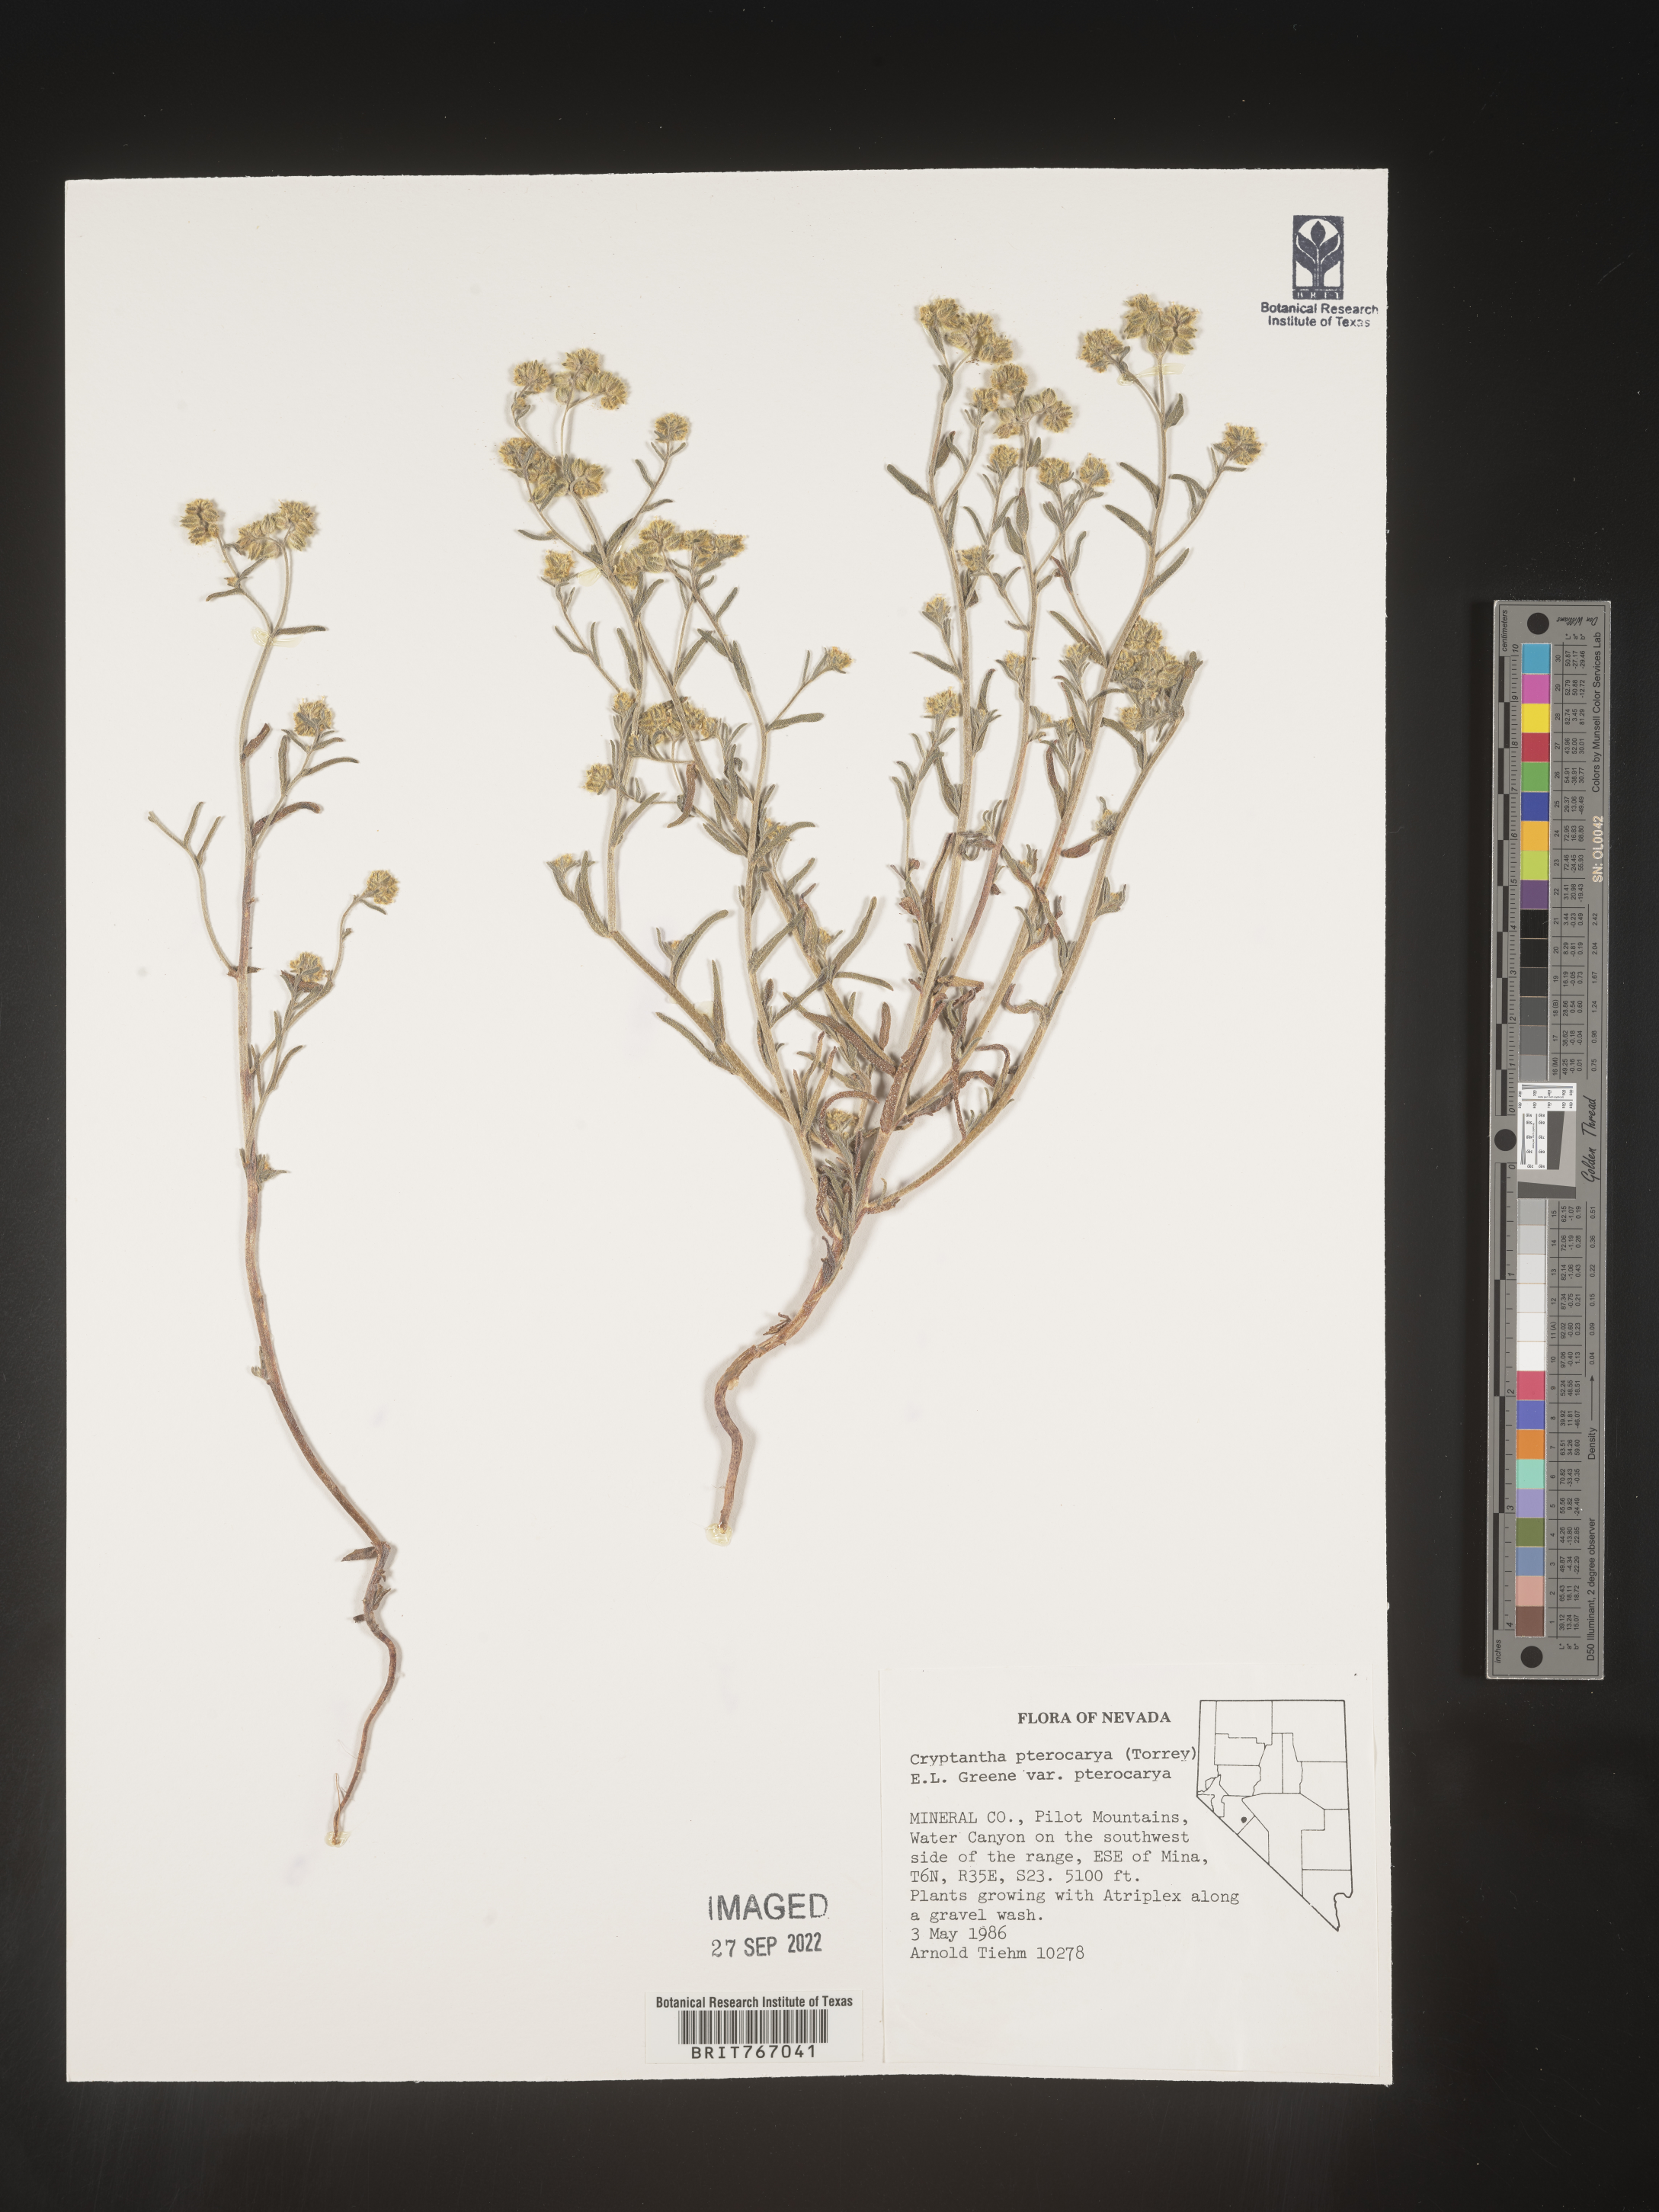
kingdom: Plantae
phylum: Tracheophyta
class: Magnoliopsida
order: Boraginales
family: Boraginaceae
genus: Cryptantha
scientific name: Cryptantha pterocarya
